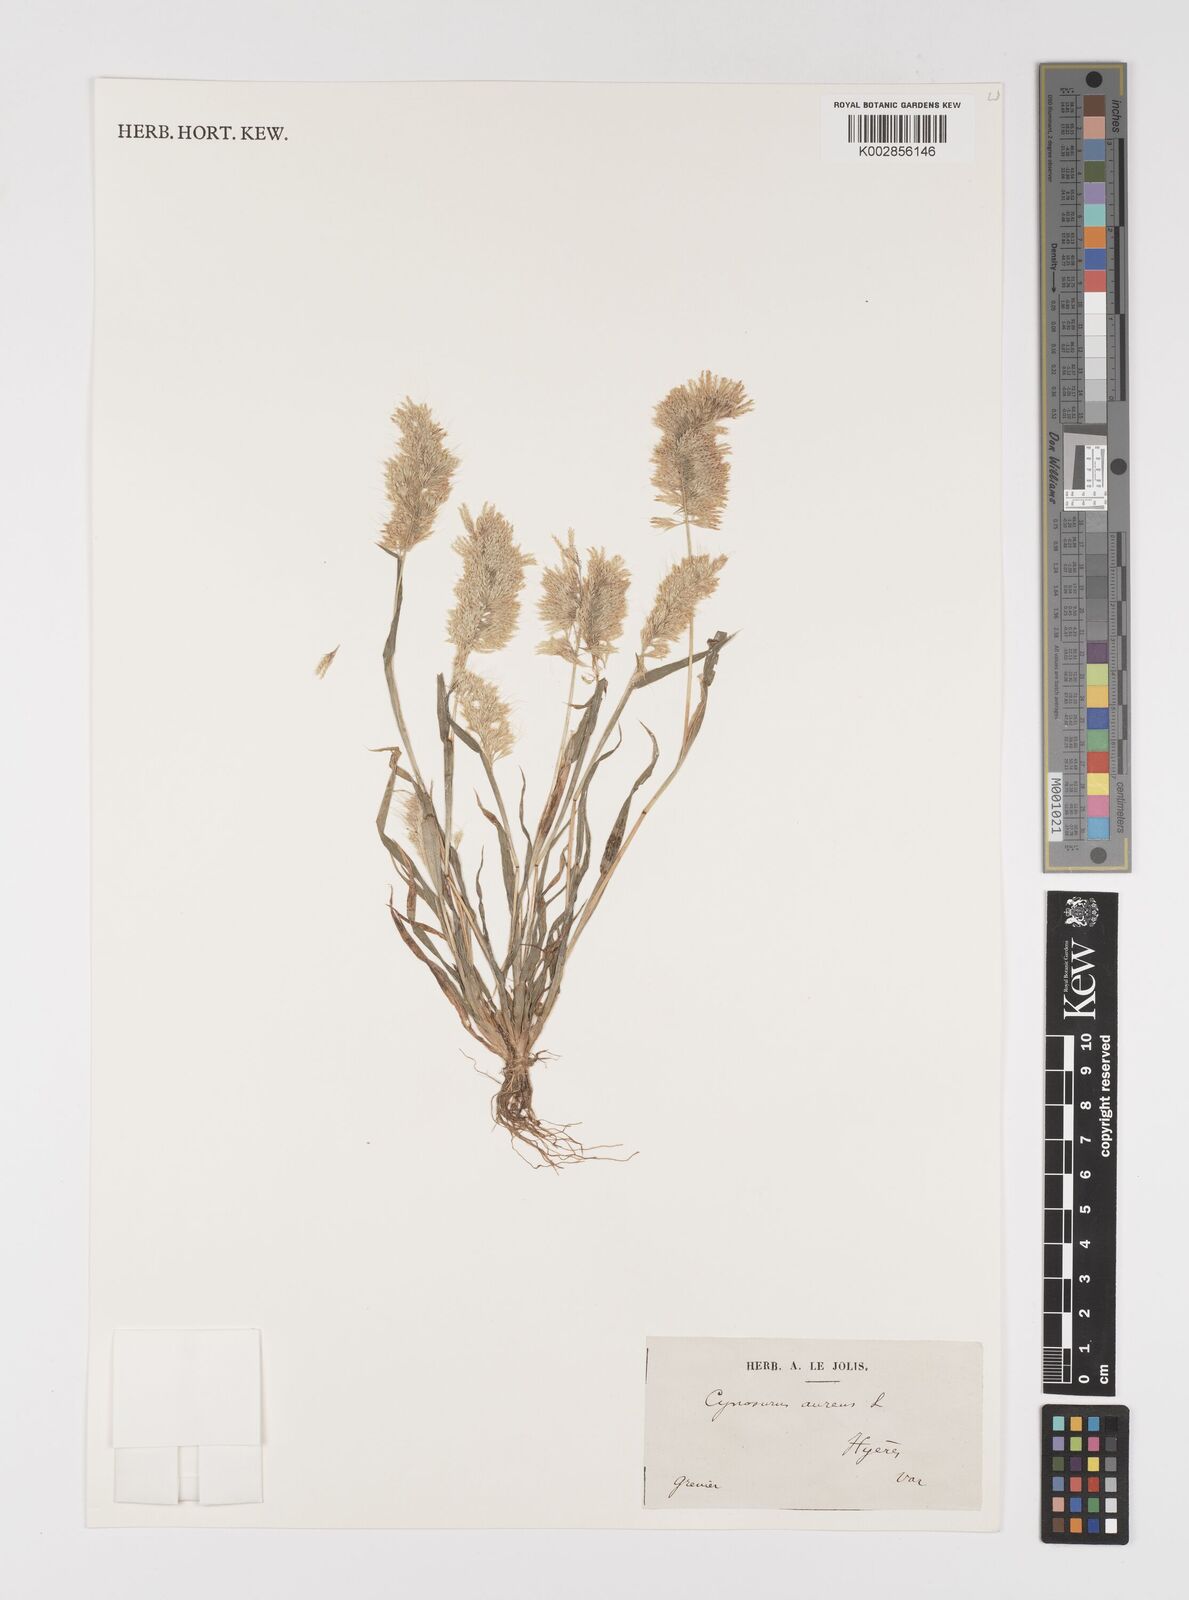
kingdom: Plantae
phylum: Tracheophyta
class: Liliopsida
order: Poales
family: Poaceae
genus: Lamarckia
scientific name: Lamarckia aurea
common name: Golden dog's-tail
